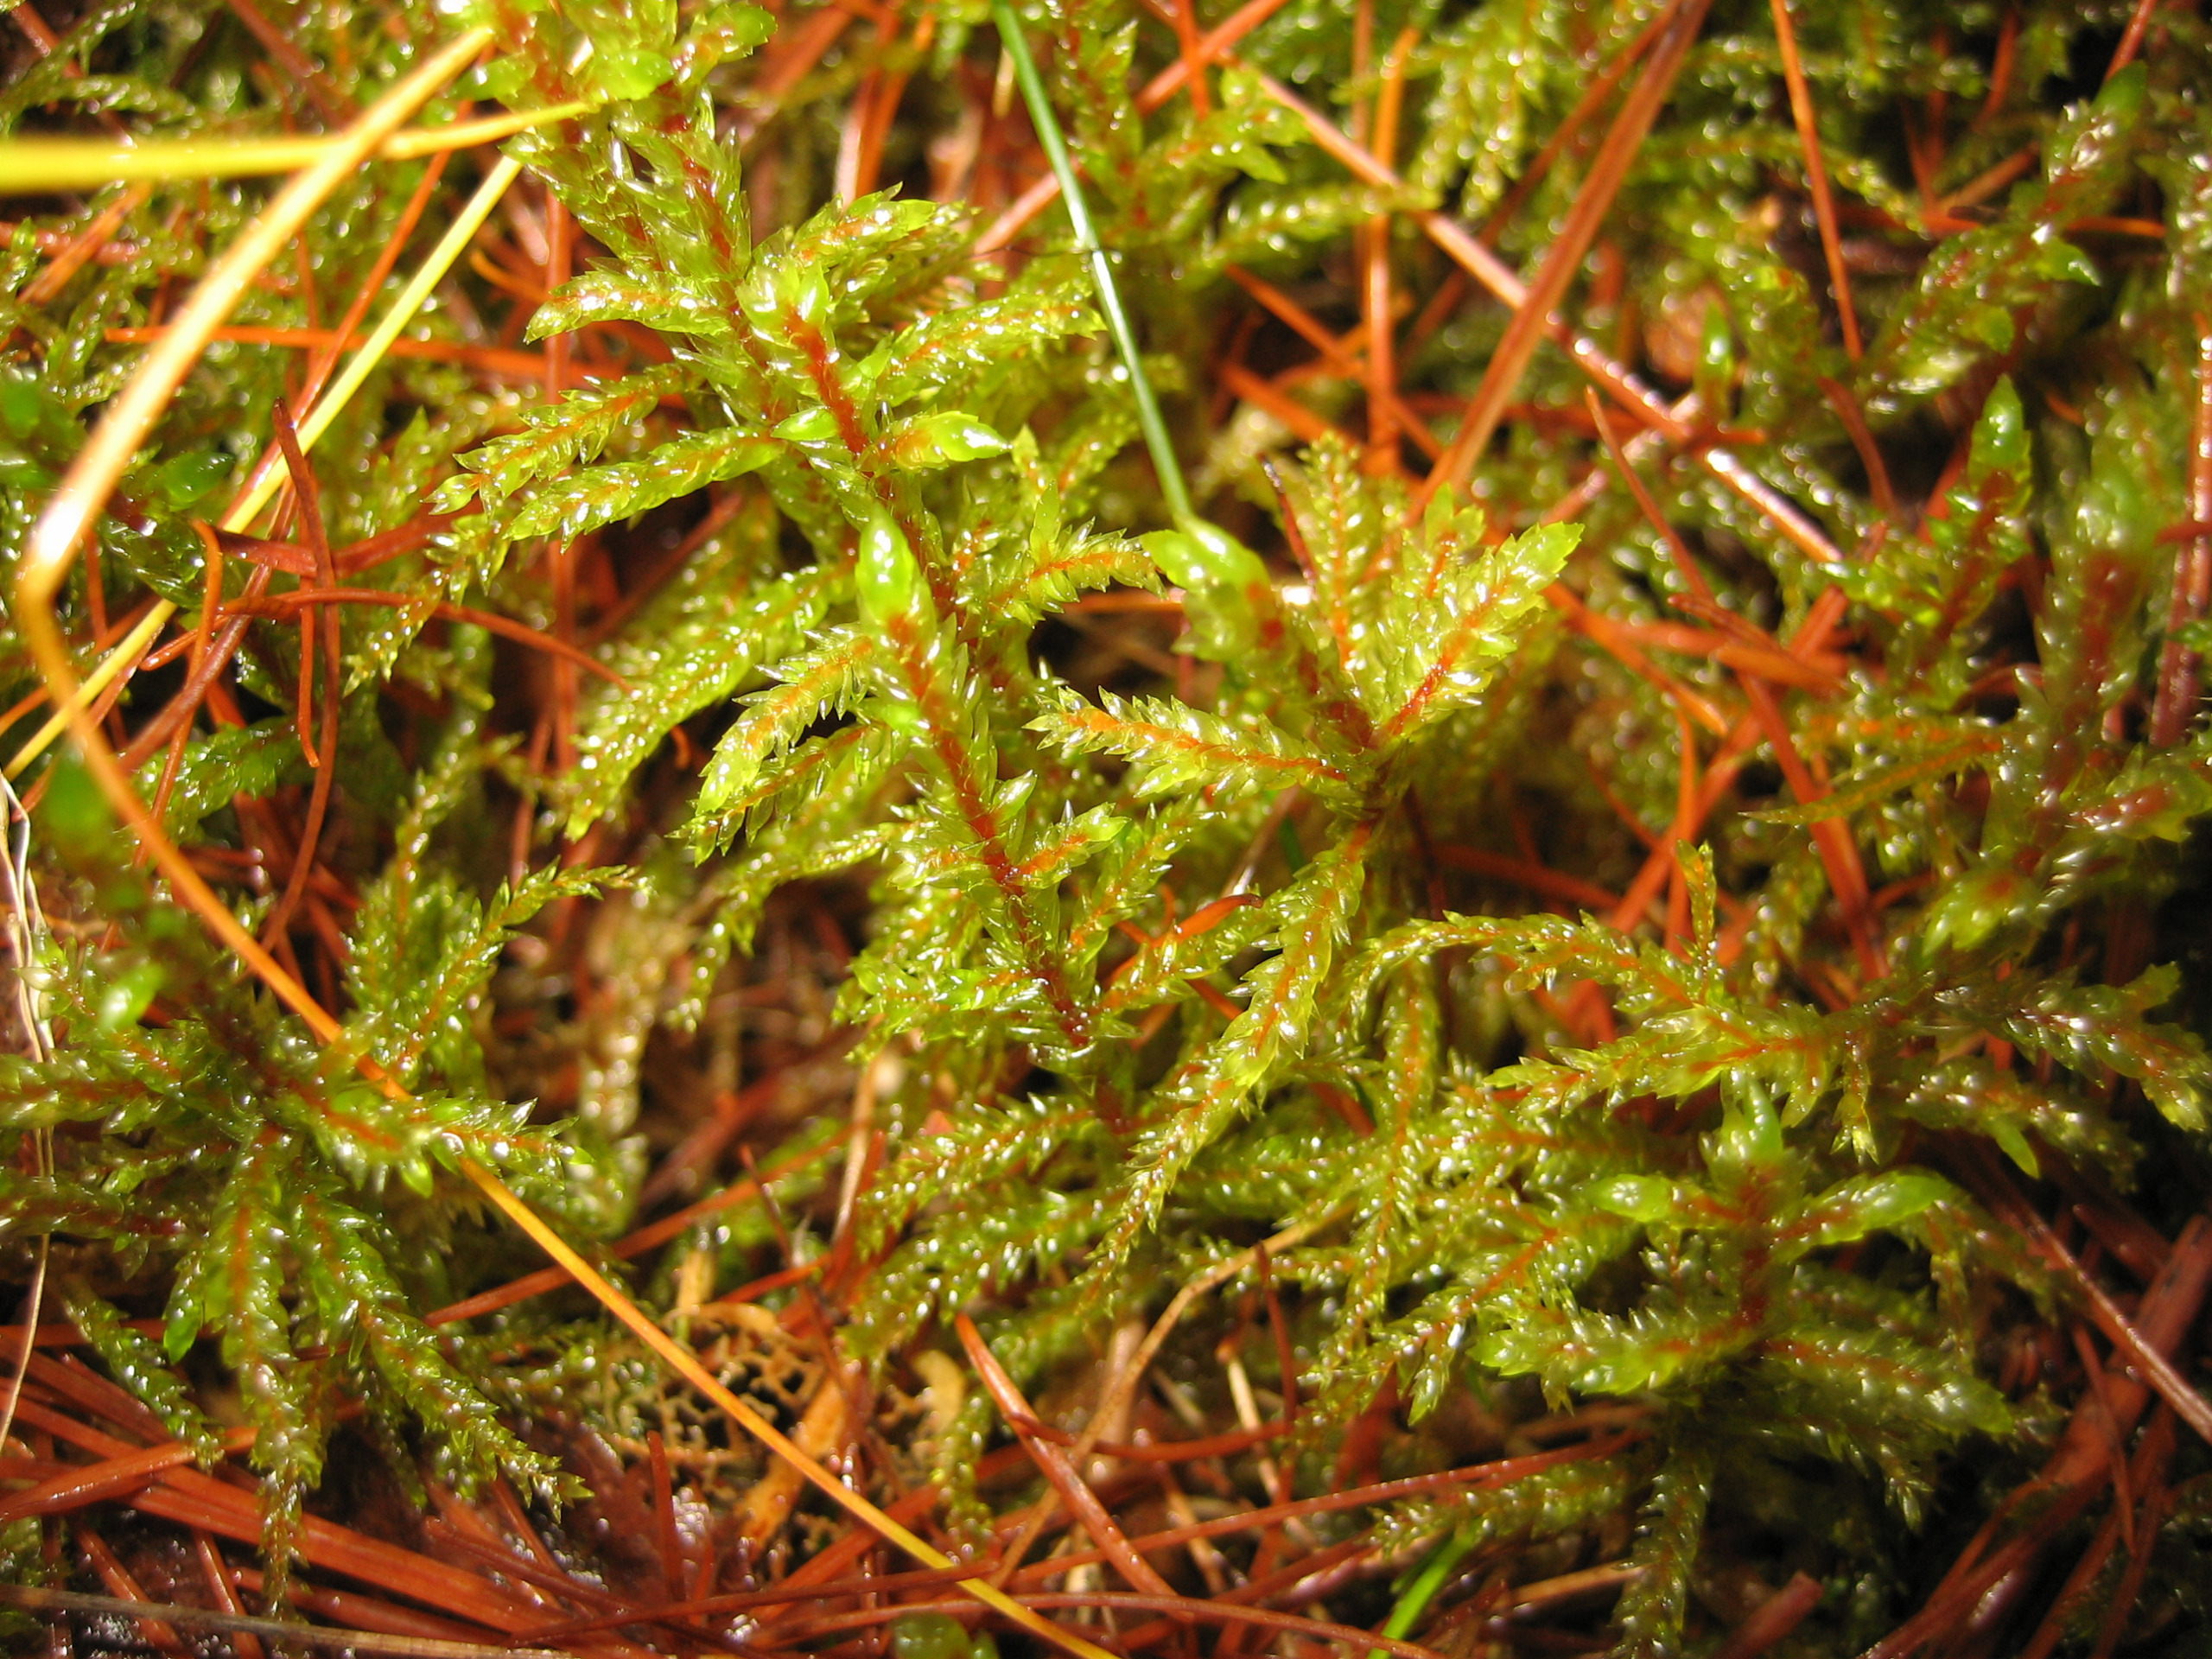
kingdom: Plantae
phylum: Bryophyta
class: Bryopsida
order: Hypnales
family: Hylocomiaceae
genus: Pleurozium
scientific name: Pleurozium schreberi
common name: Trind fyrremos
